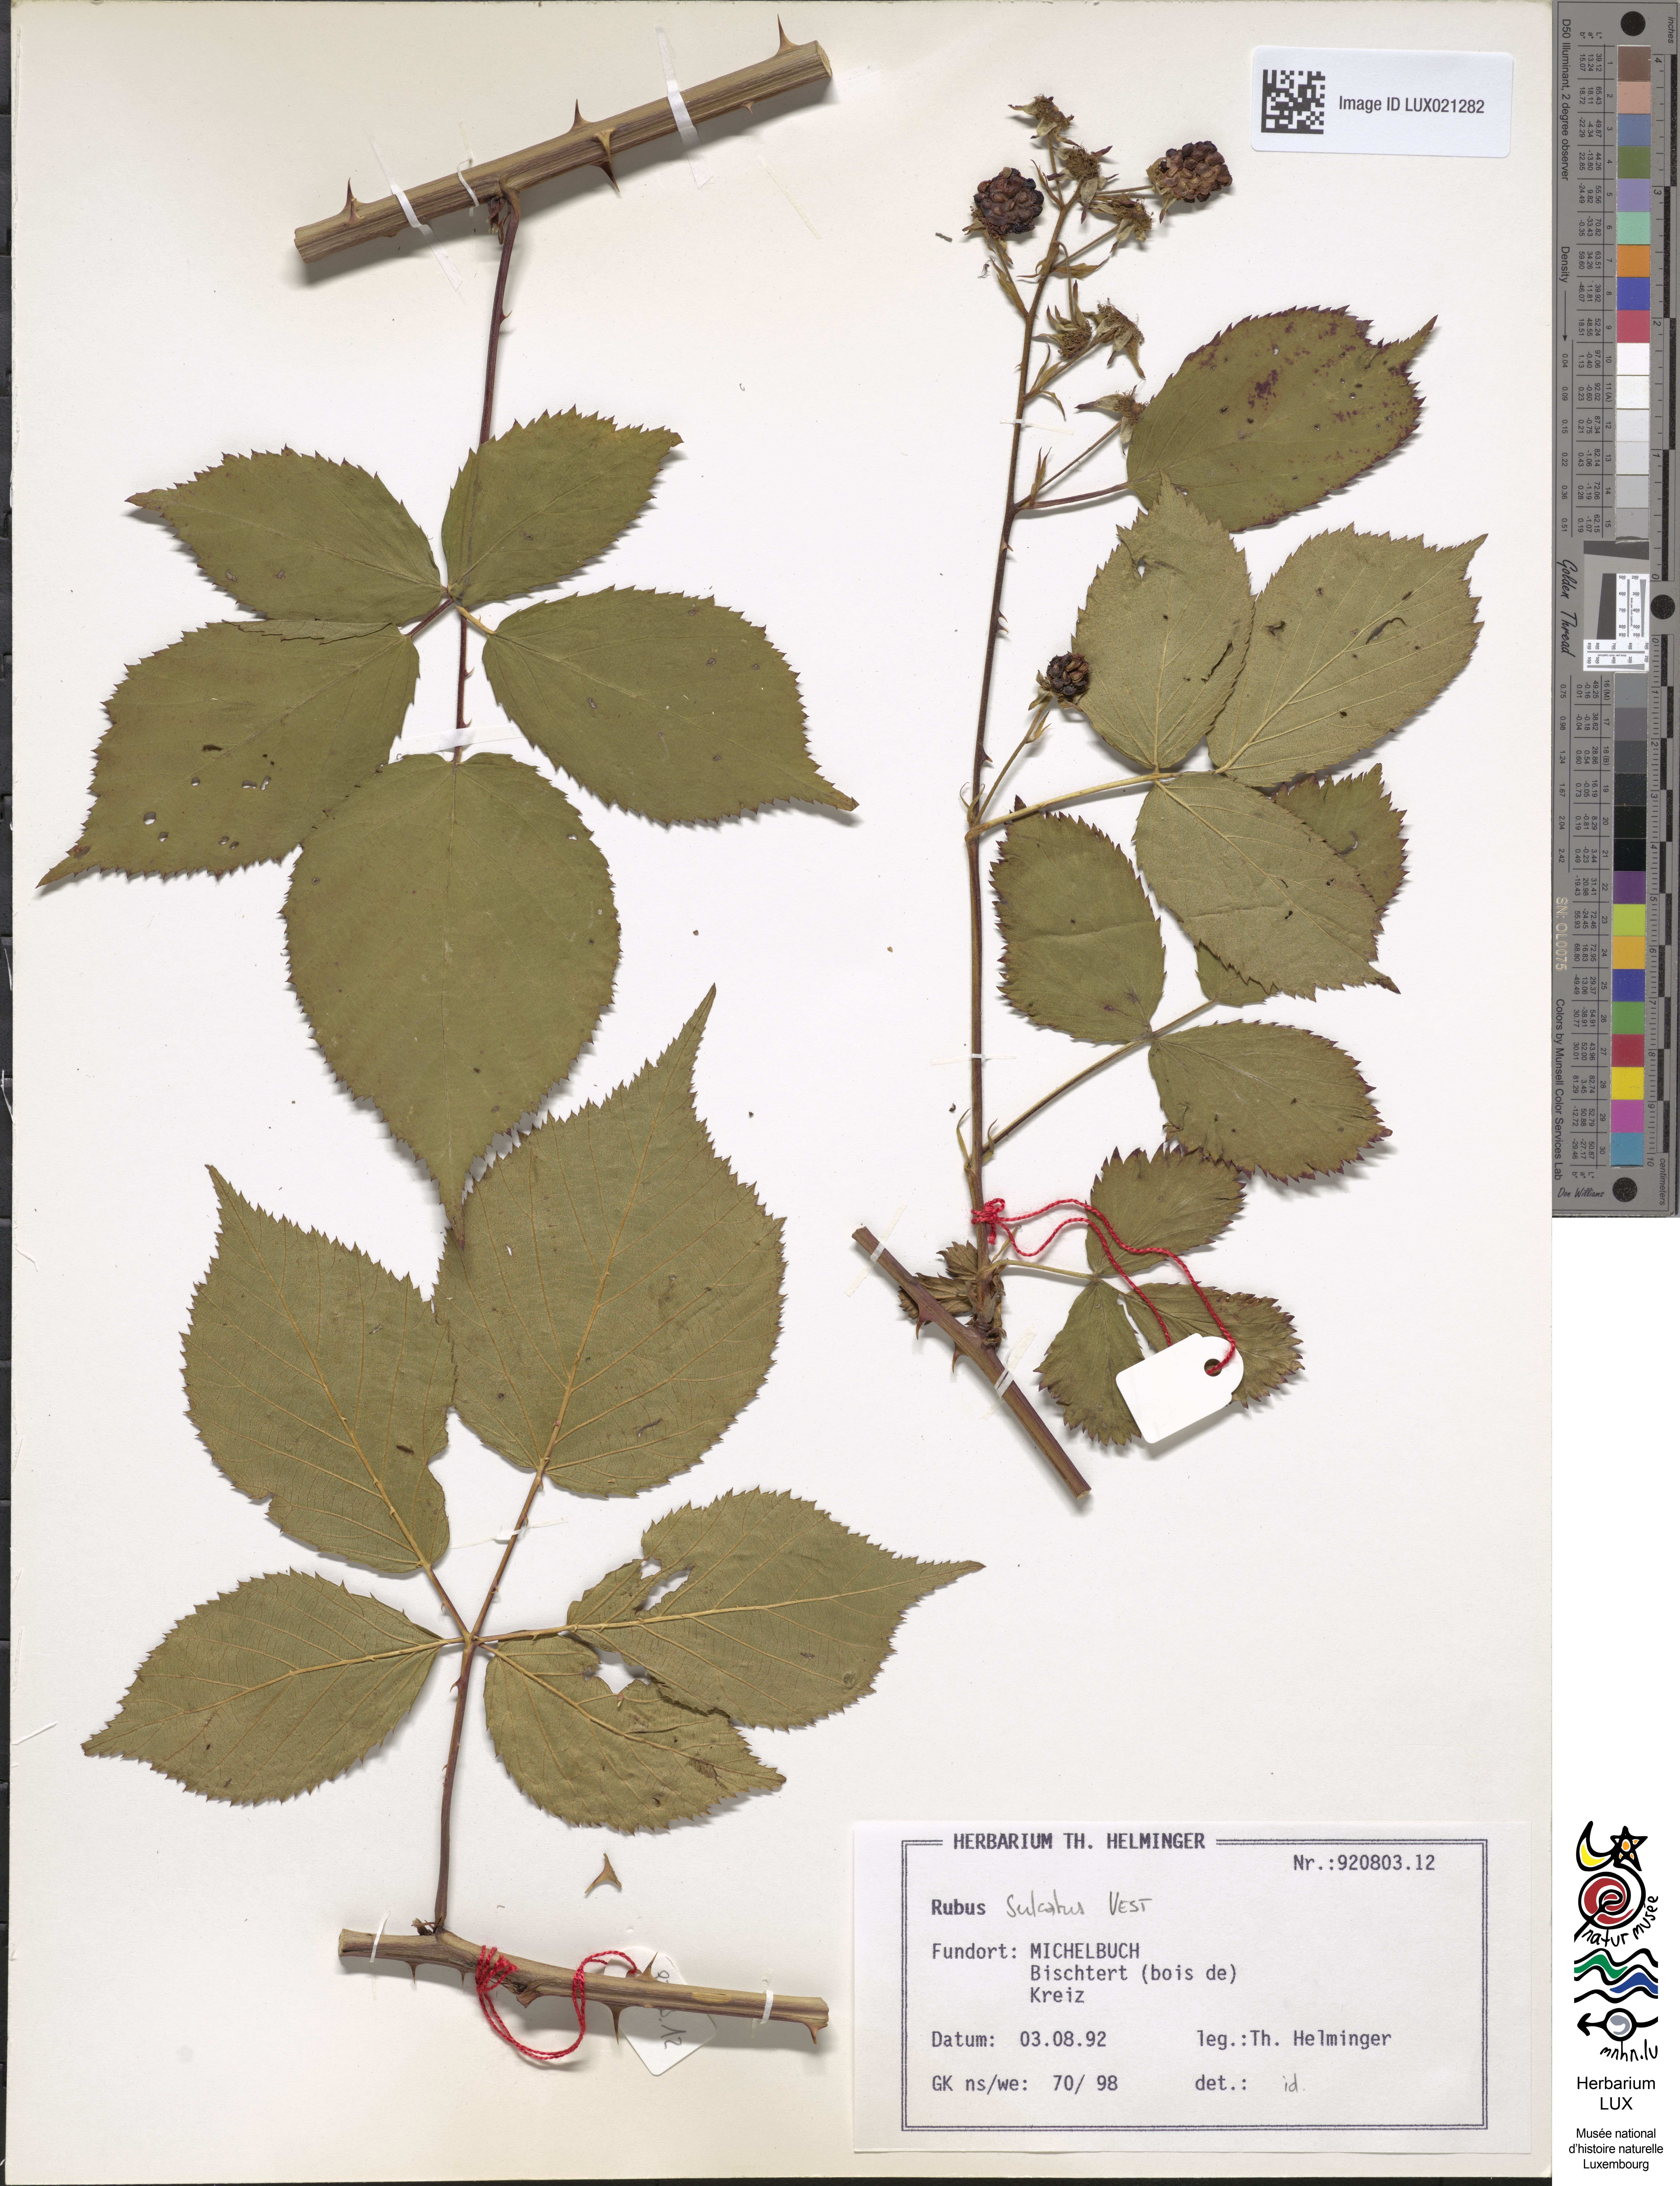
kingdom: Plantae
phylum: Tracheophyta
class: Magnoliopsida
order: Rosales
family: Rosaceae
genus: Rubus
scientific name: Rubus sulcatus
